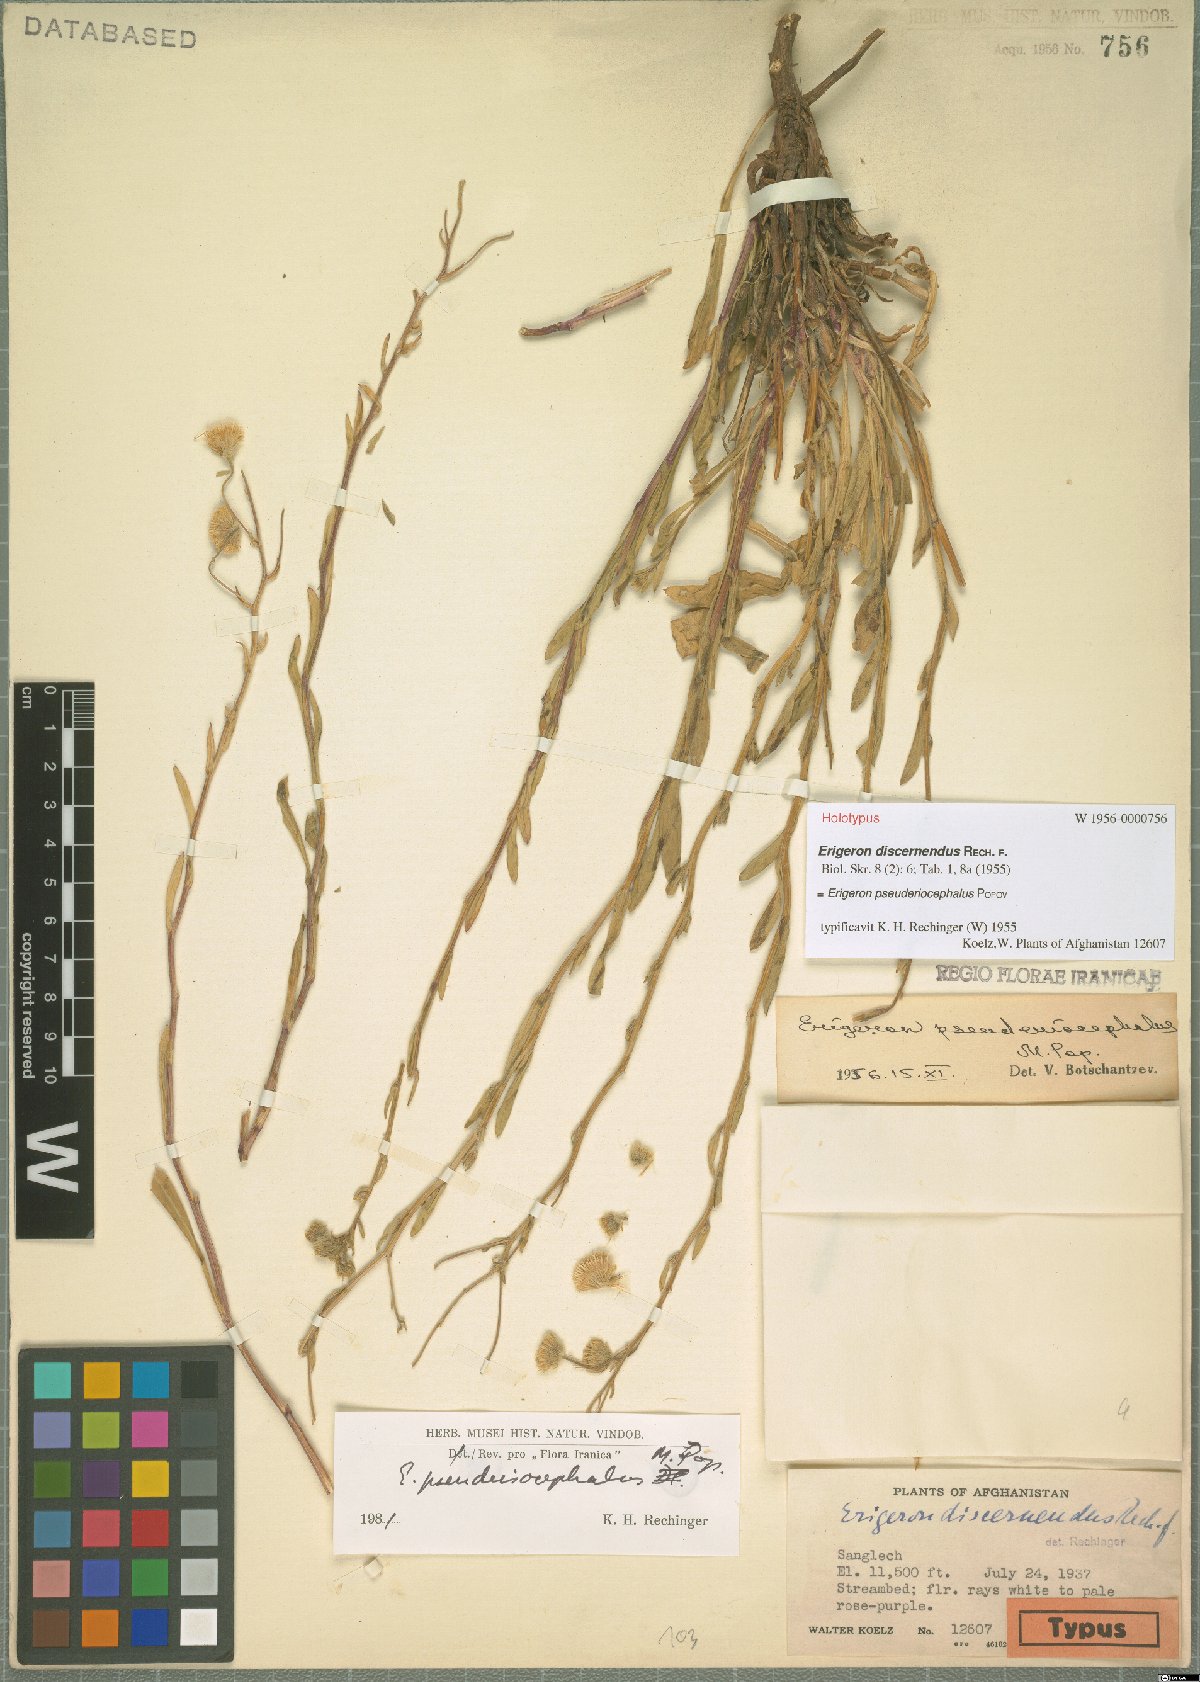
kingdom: Plantae
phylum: Tracheophyta
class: Magnoliopsida
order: Asterales
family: Asteraceae
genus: Erigeron
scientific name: Erigeron pseuderiocephalus
